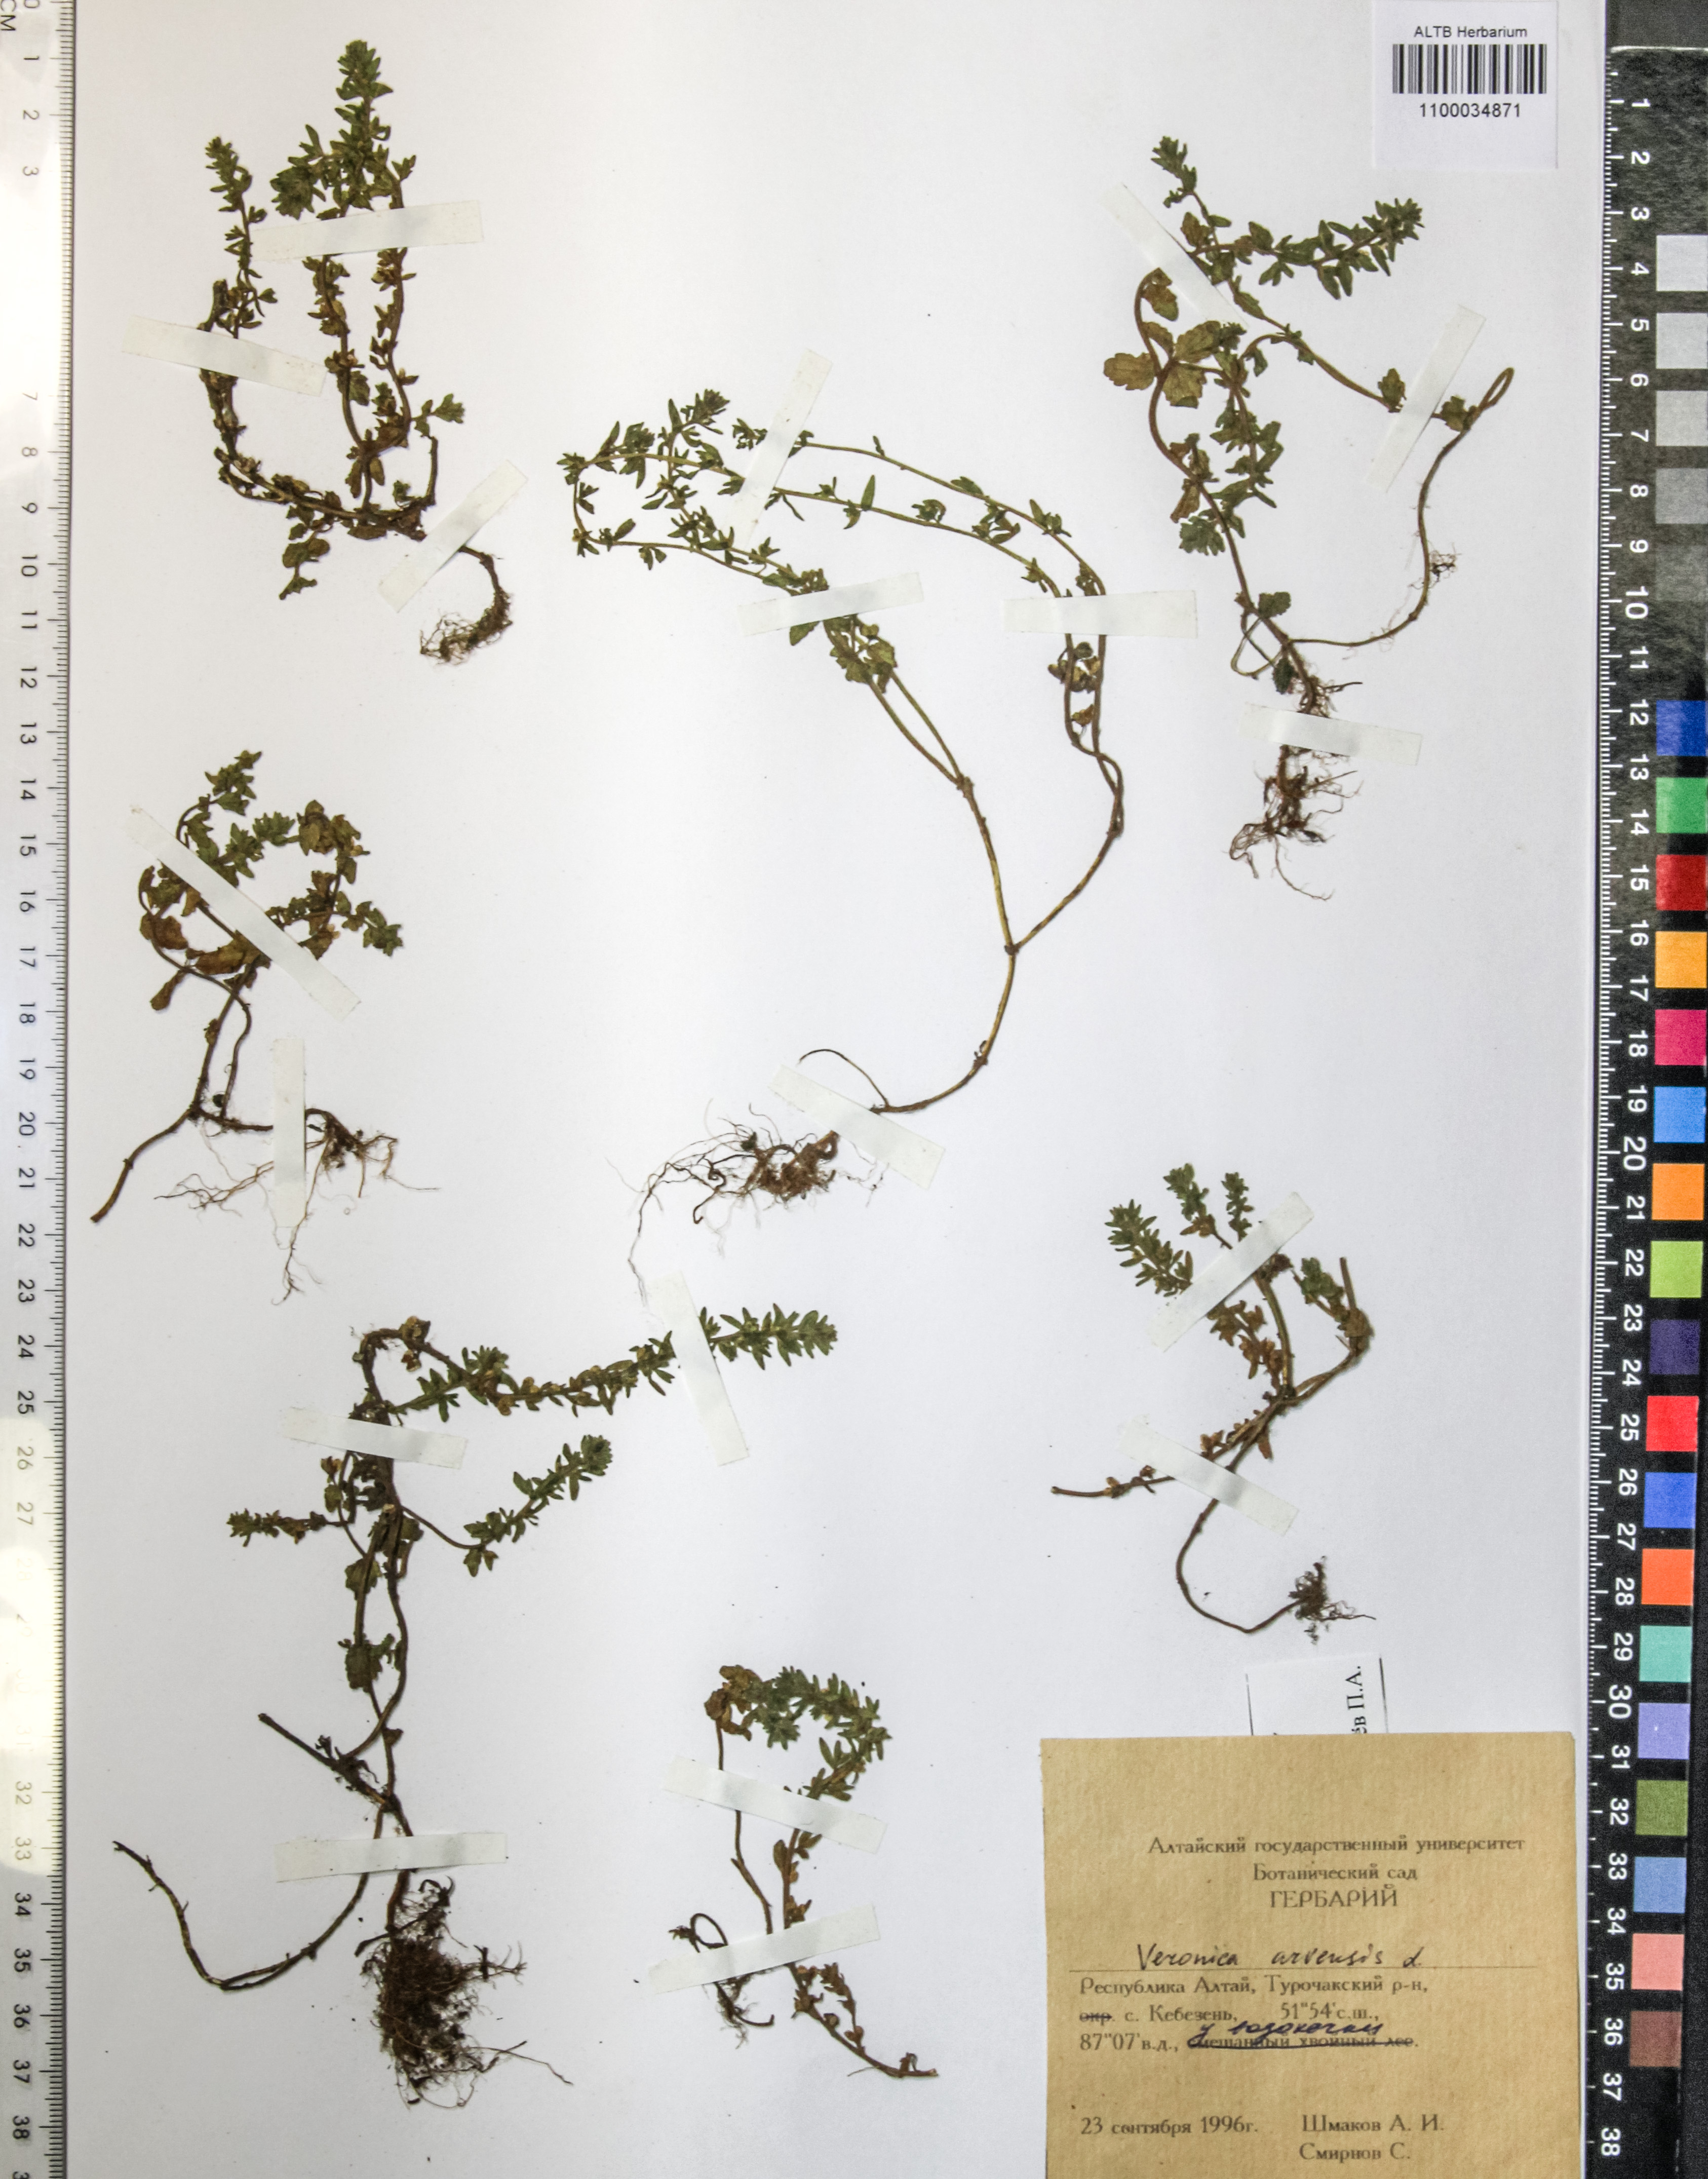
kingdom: Plantae
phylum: Tracheophyta
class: Magnoliopsida
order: Lamiales
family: Plantaginaceae
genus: Veronica
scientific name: Veronica arvensis
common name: Corn speedwell
